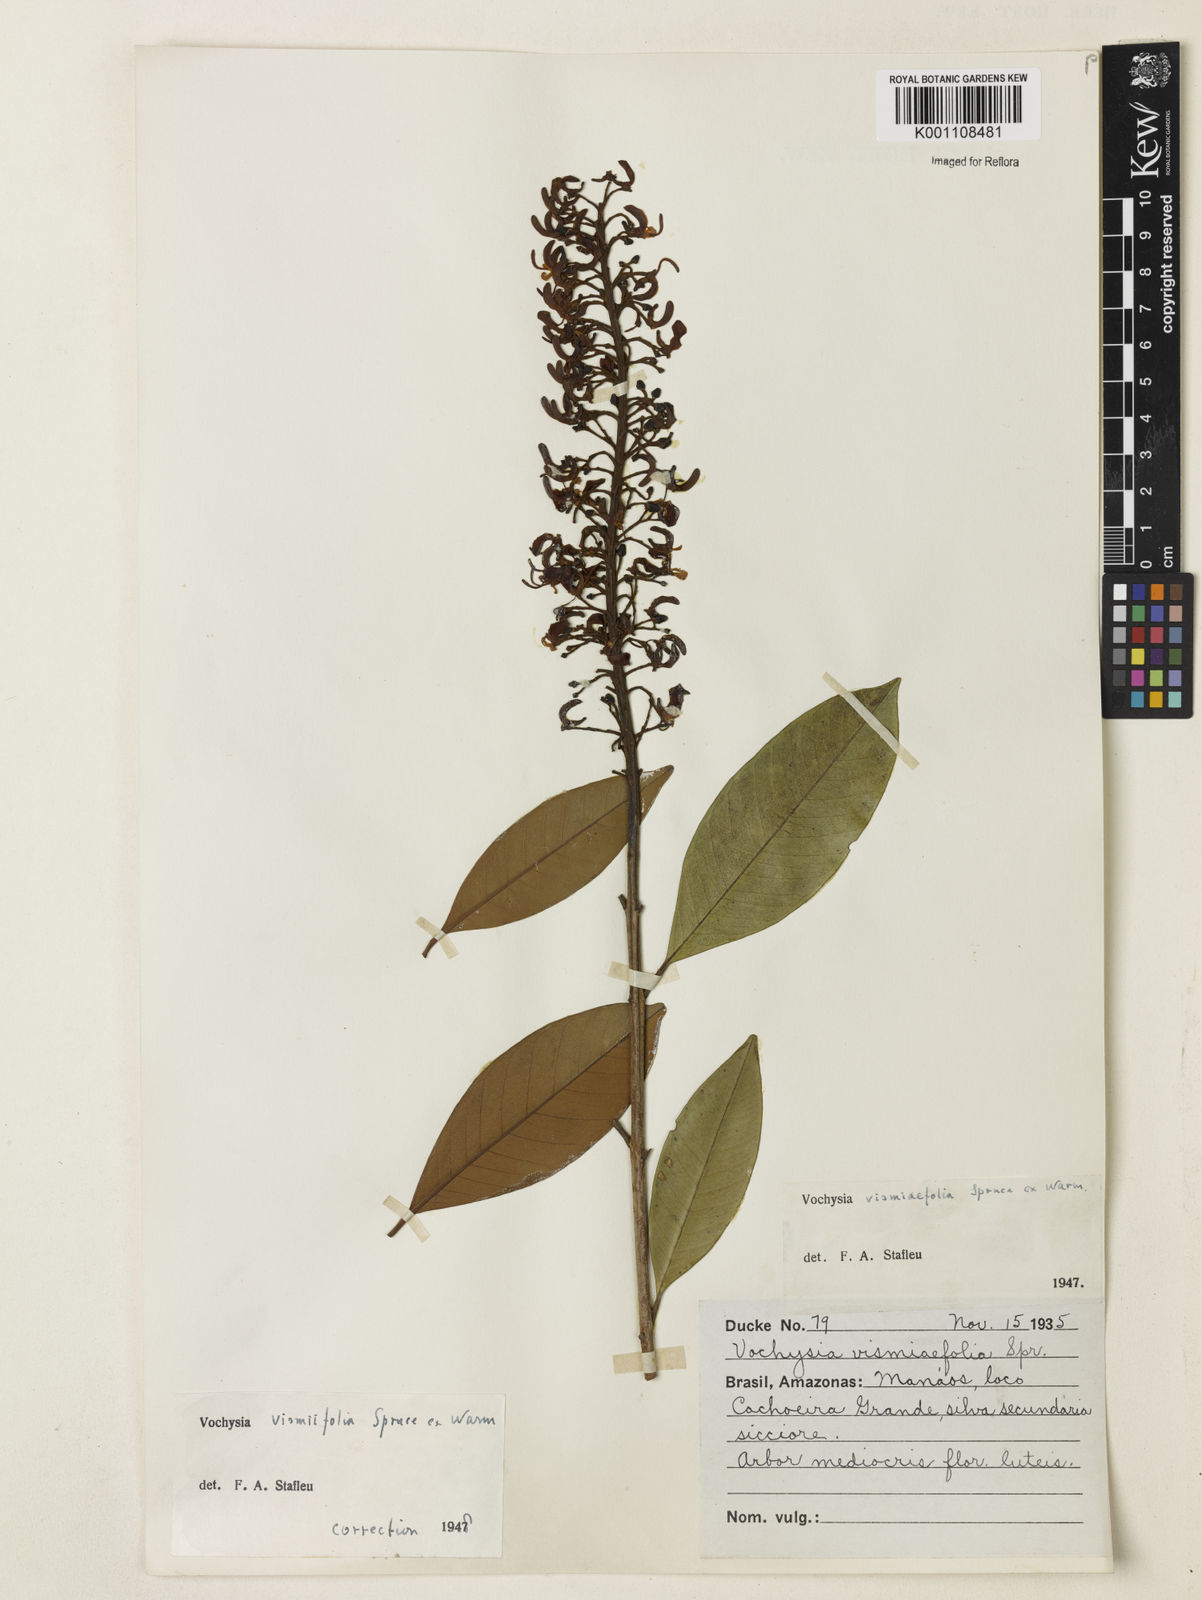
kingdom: Plantae
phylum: Tracheophyta
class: Magnoliopsida
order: Myrtales
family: Vochysiaceae
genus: Vochysia
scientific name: Vochysia vismiifolia
